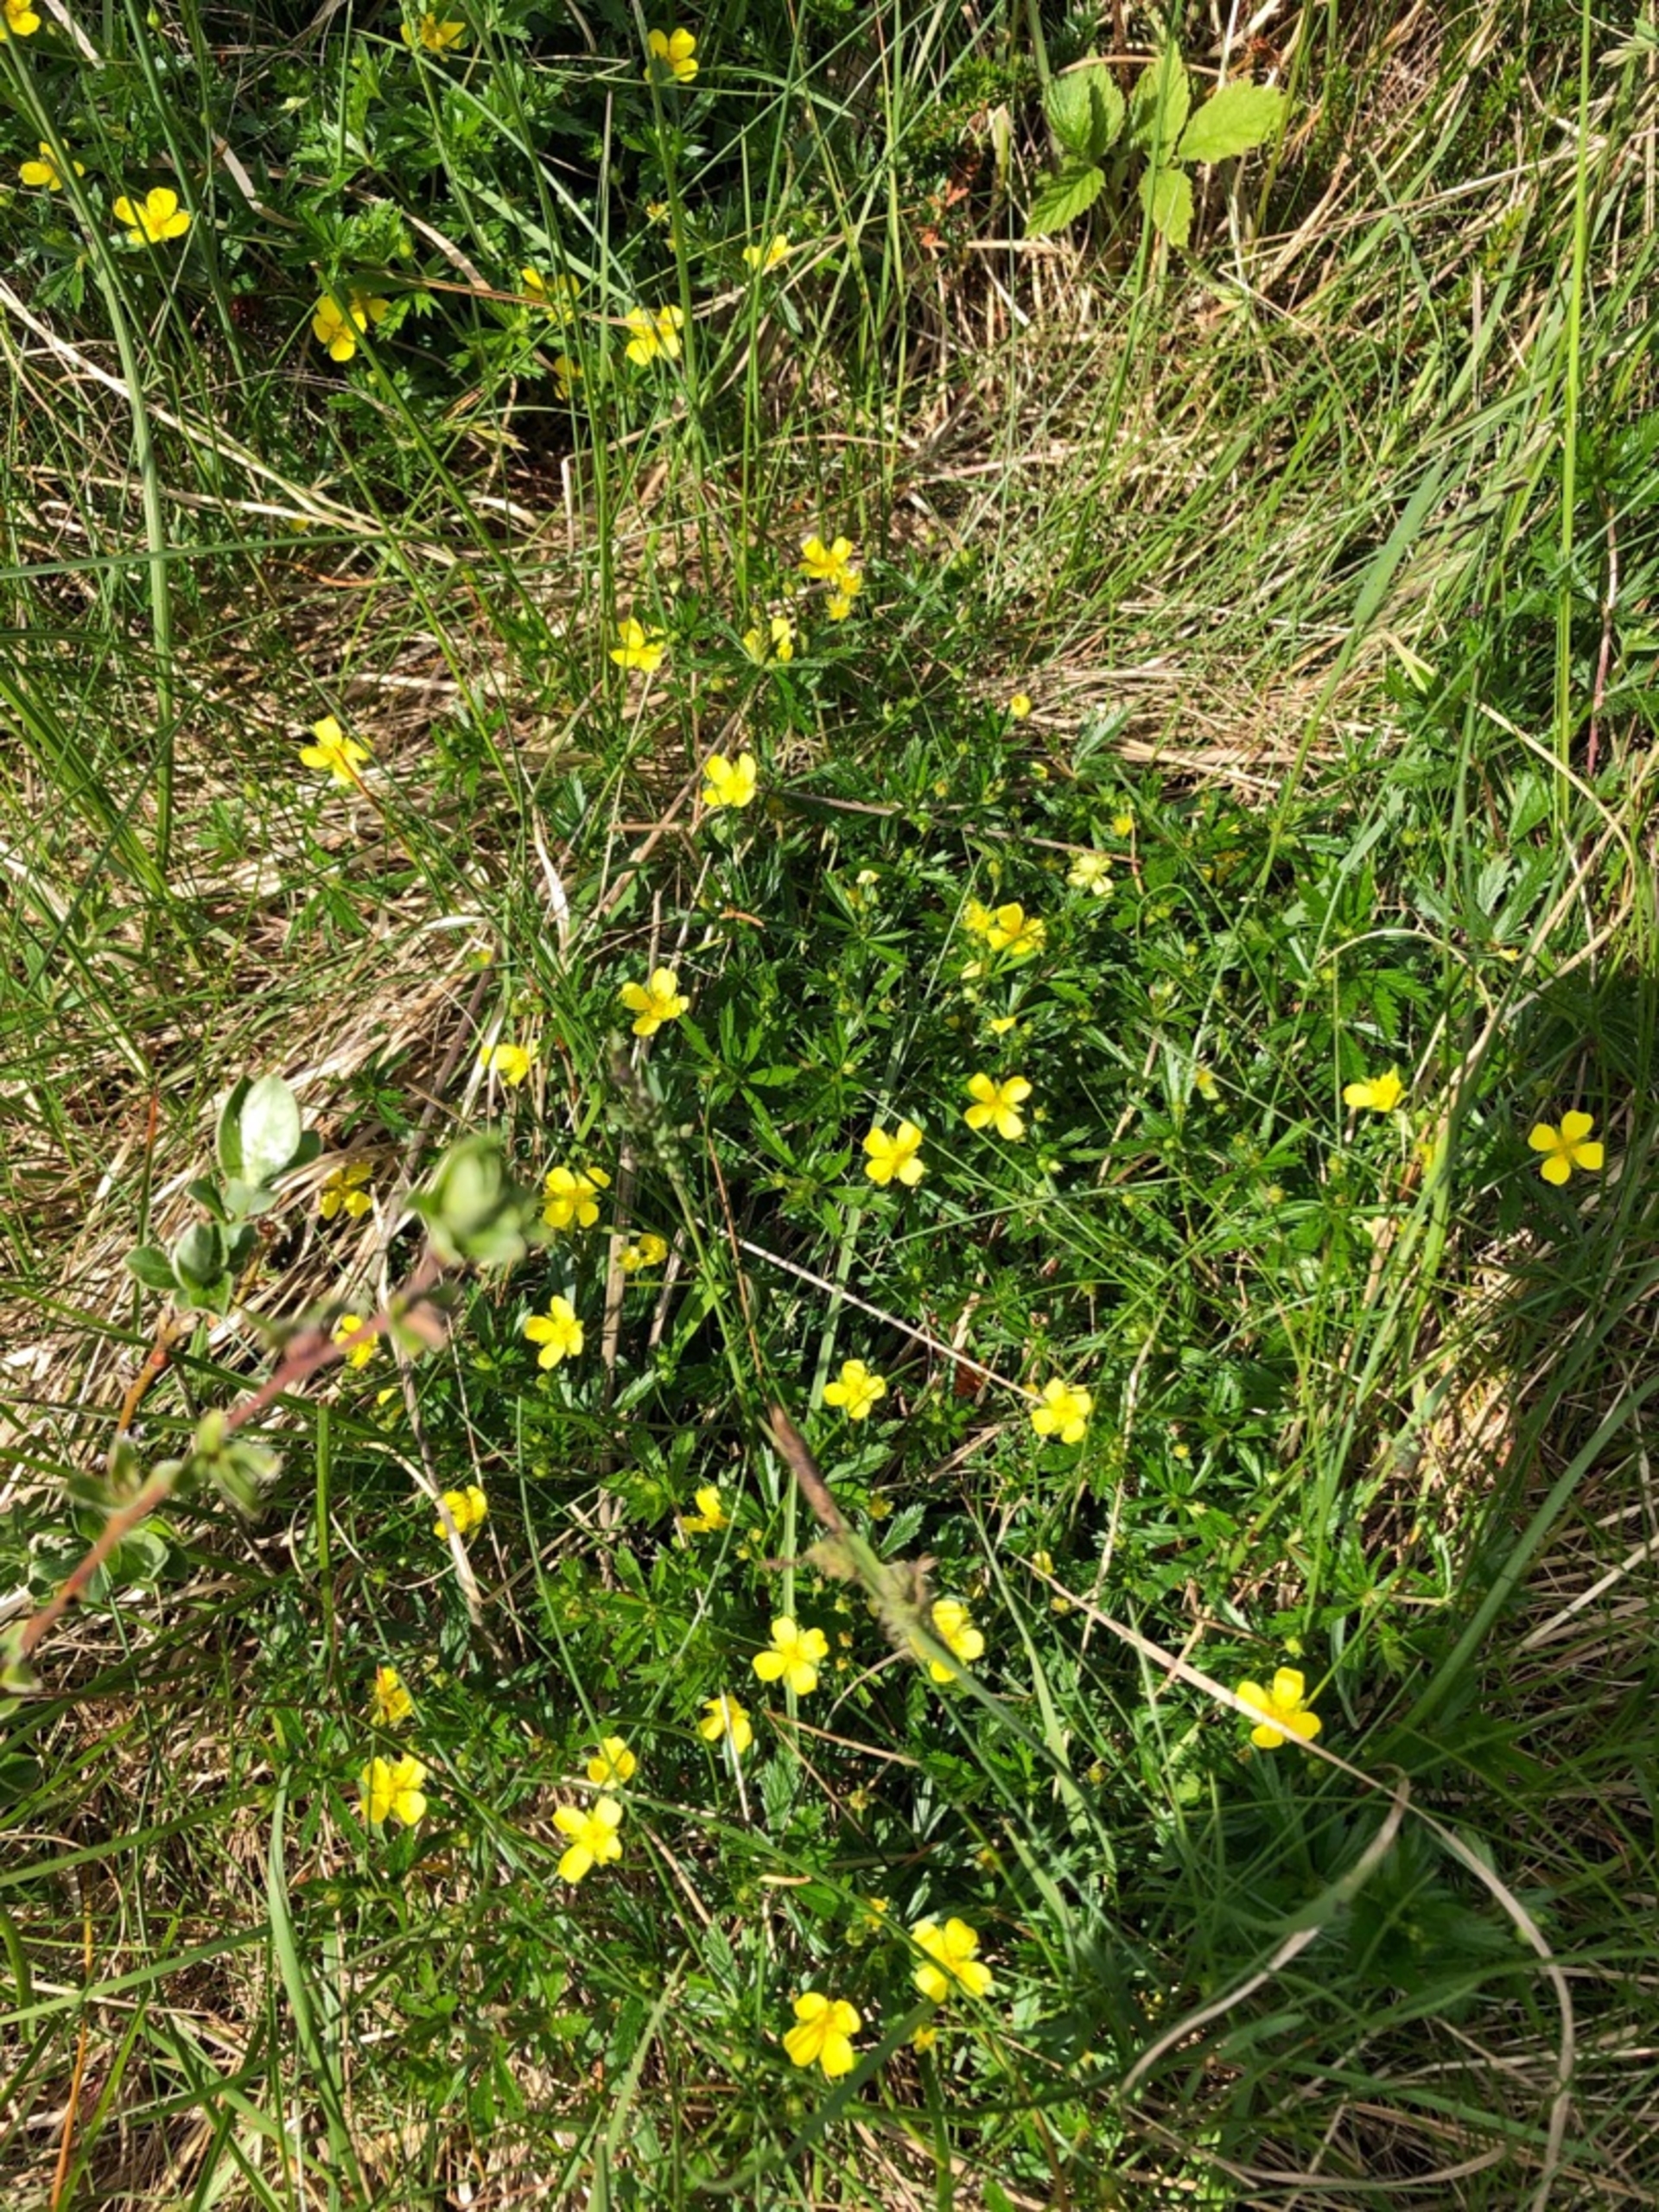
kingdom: Plantae
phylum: Tracheophyta
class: Magnoliopsida
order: Rosales
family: Rosaceae
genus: Potentilla
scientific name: Potentilla erecta
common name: Tormentil
